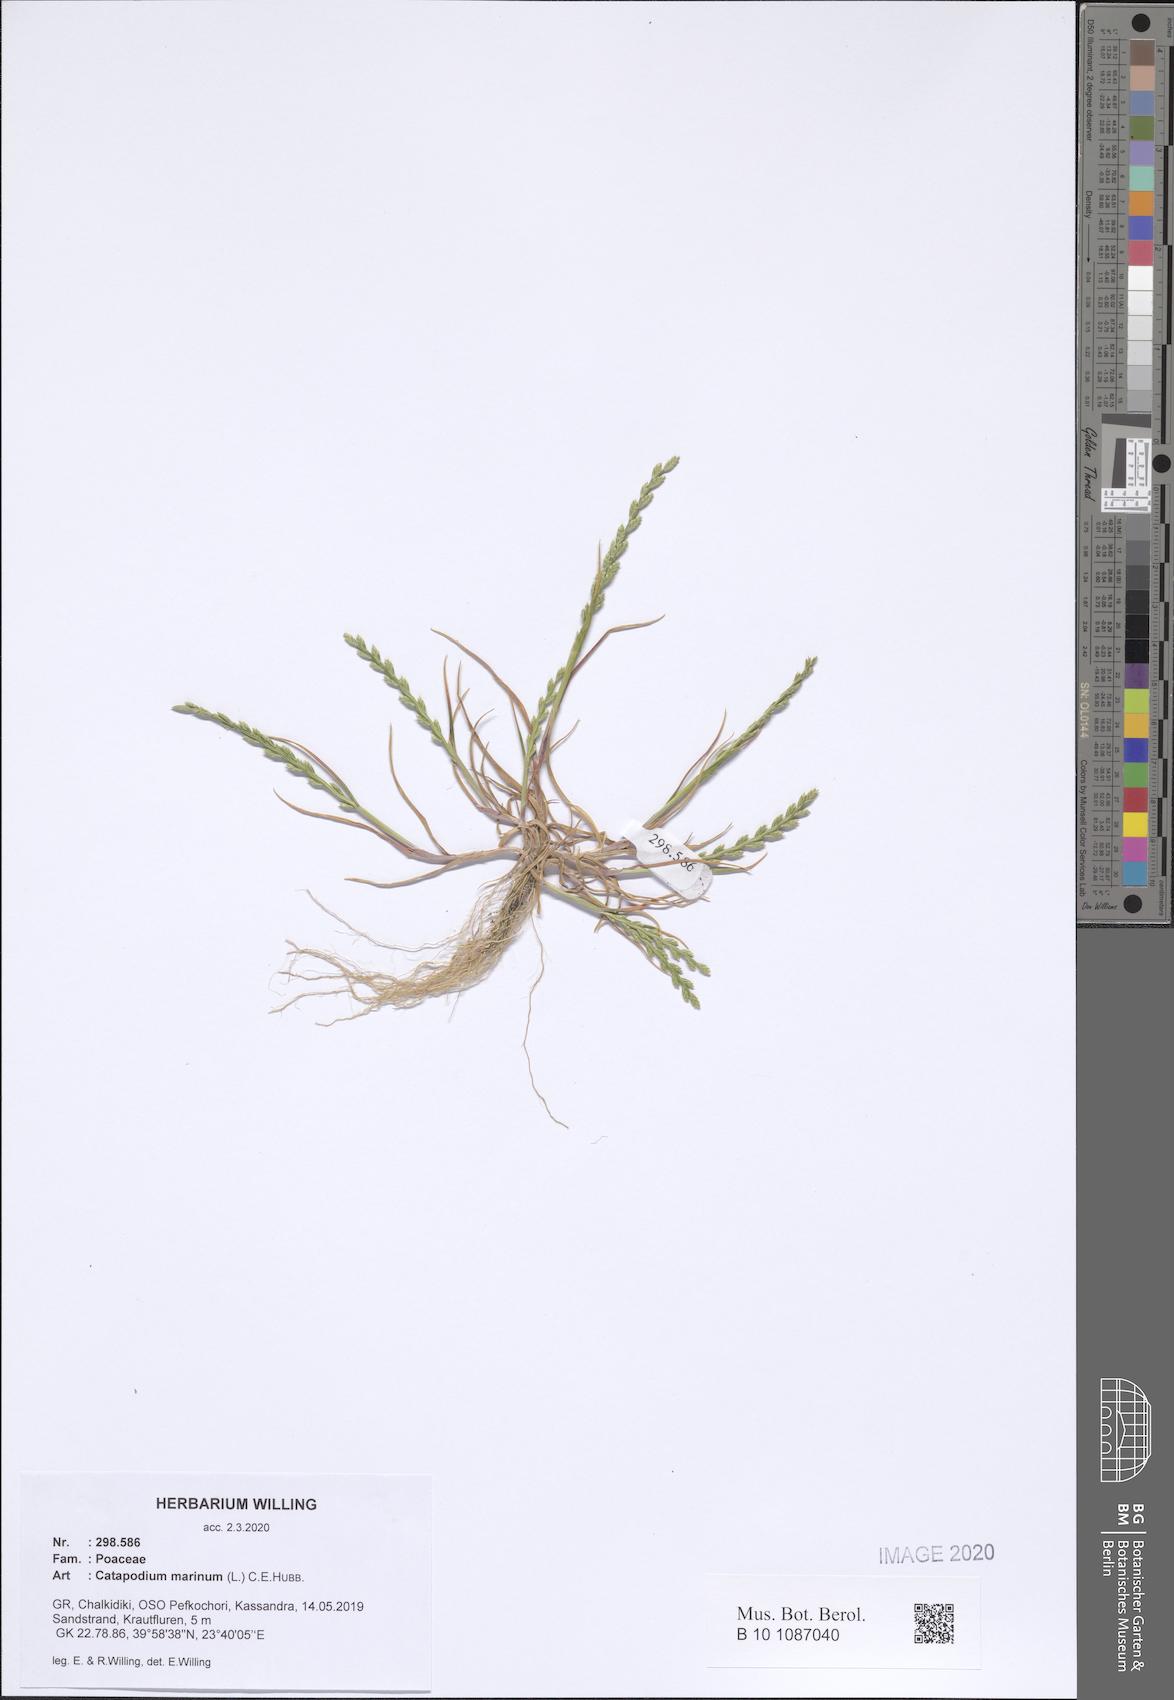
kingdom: Plantae
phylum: Tracheophyta
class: Liliopsida
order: Poales
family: Poaceae
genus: Catapodium
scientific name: Catapodium marinum
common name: Sea fern-grass
